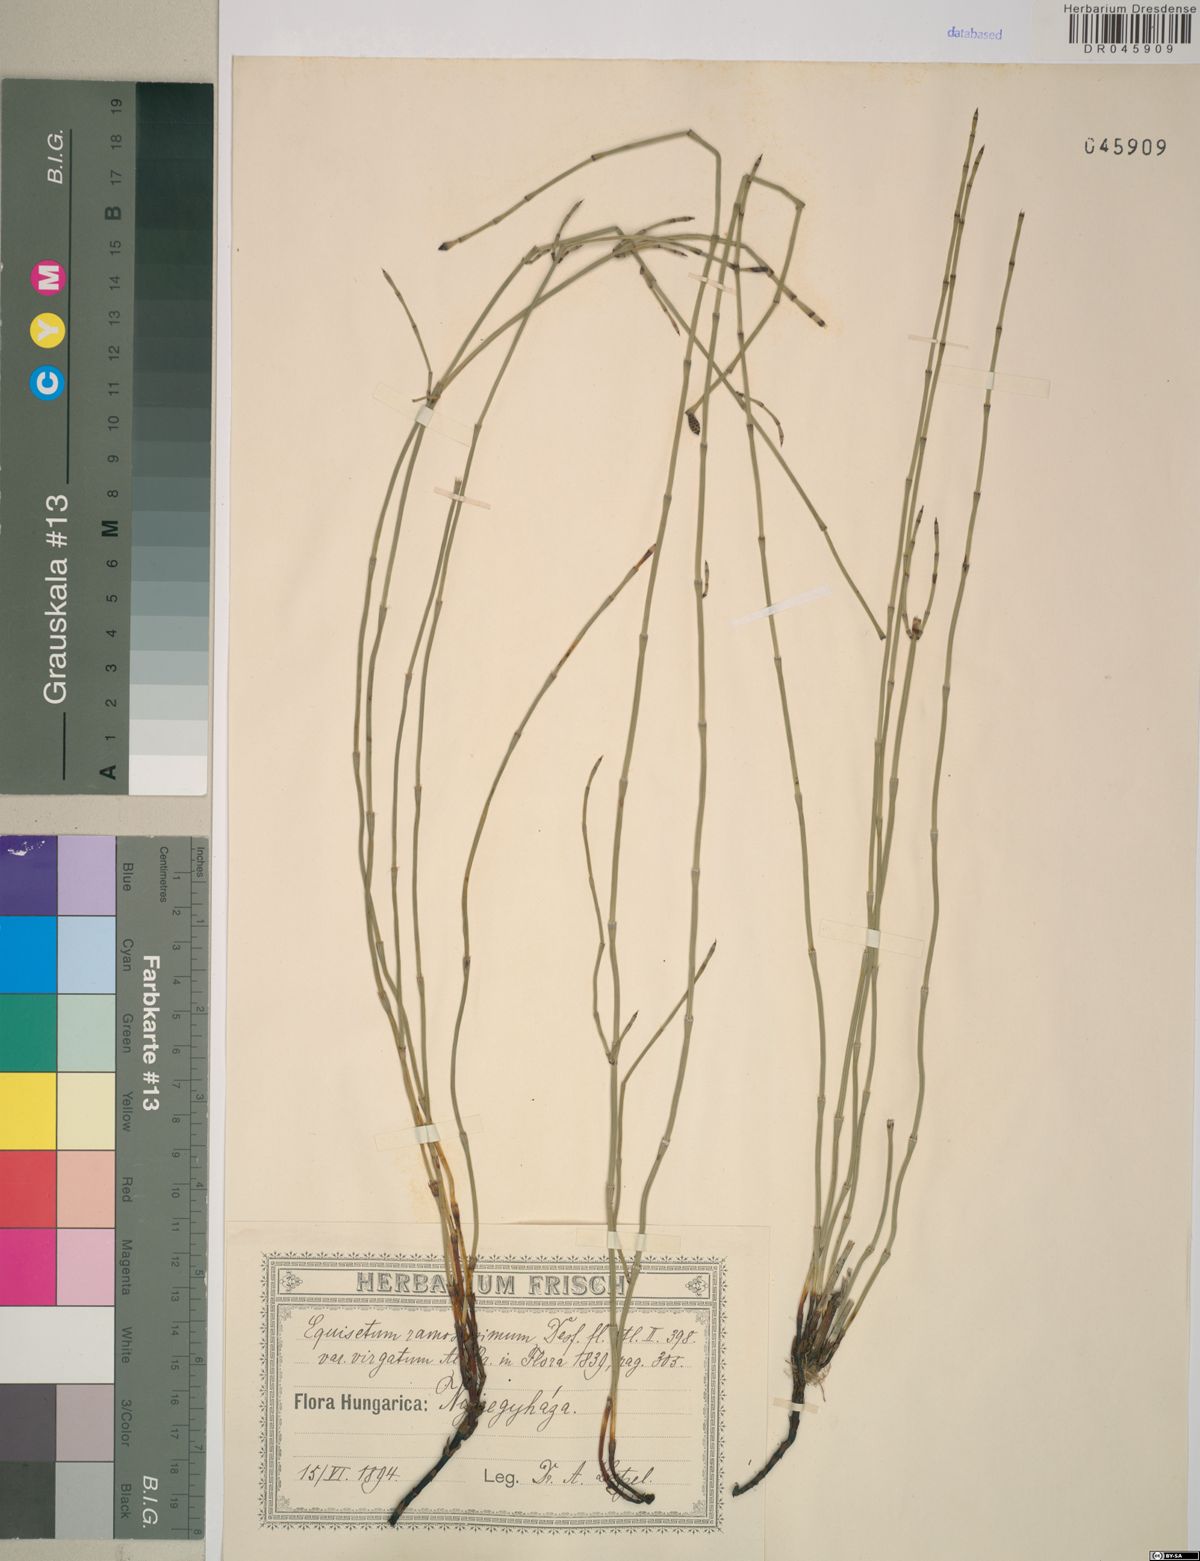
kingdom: Plantae
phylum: Tracheophyta
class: Polypodiopsida
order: Equisetales
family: Equisetaceae
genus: Equisetum
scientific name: Equisetum ramosissimum
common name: Branched horsetail
